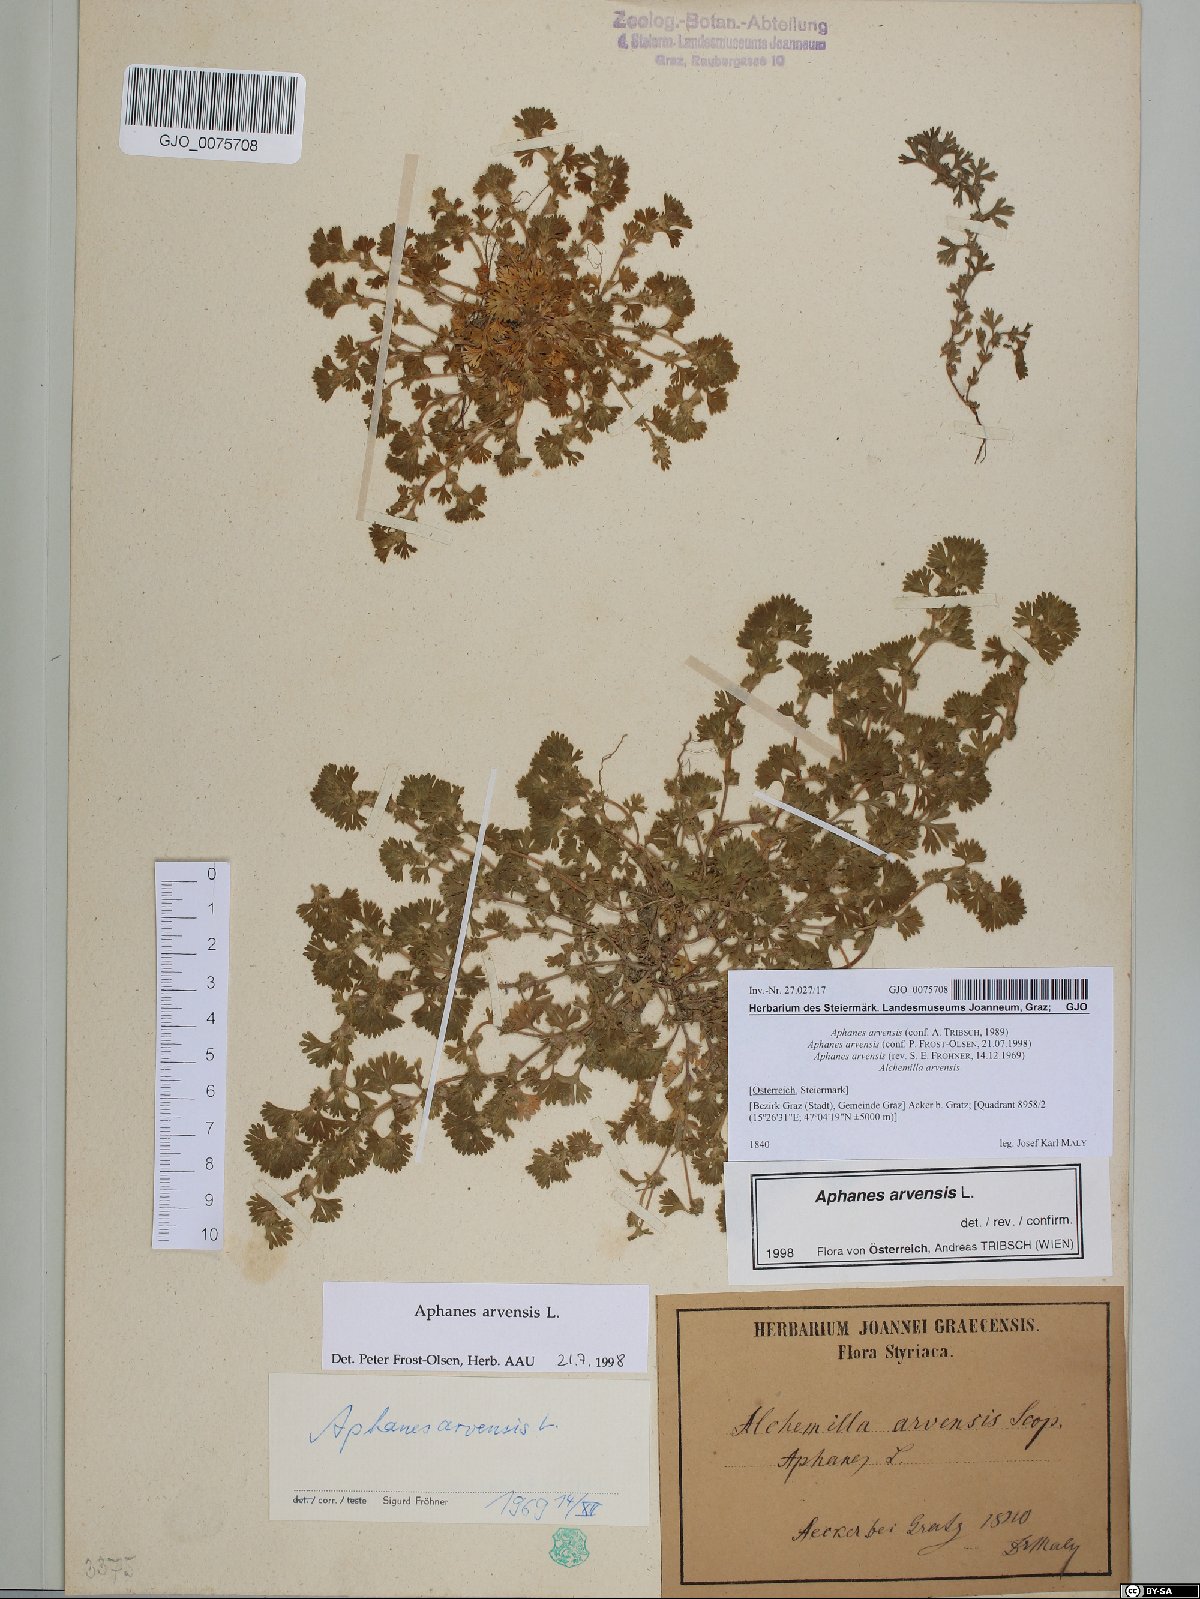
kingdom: Plantae
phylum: Tracheophyta
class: Magnoliopsida
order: Rosales
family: Rosaceae
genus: Aphanes
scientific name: Aphanes arvensis
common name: Parsley-piert
